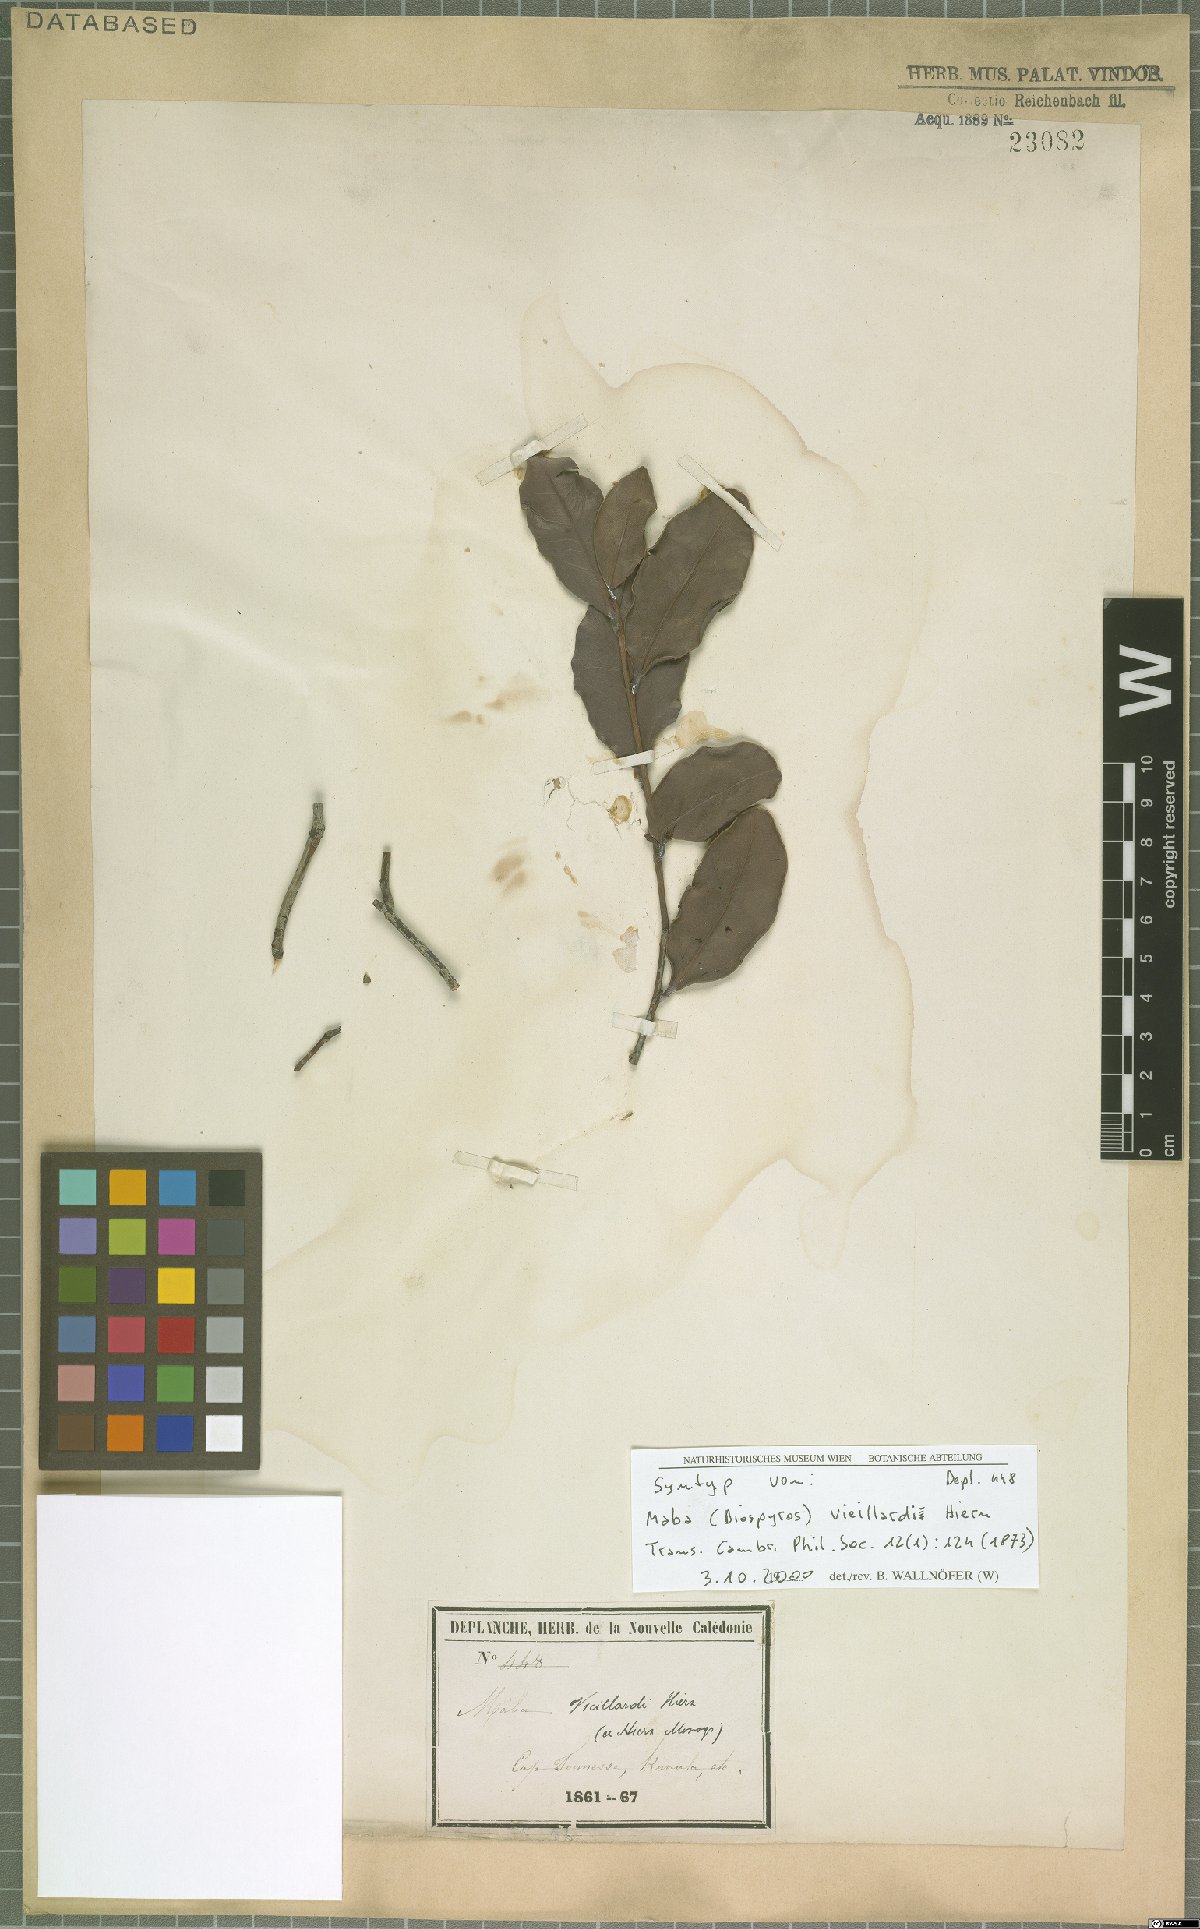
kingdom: Plantae
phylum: Tracheophyta
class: Magnoliopsida
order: Ericales
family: Ebenaceae
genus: Diospyros
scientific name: Diospyros vieillardii
